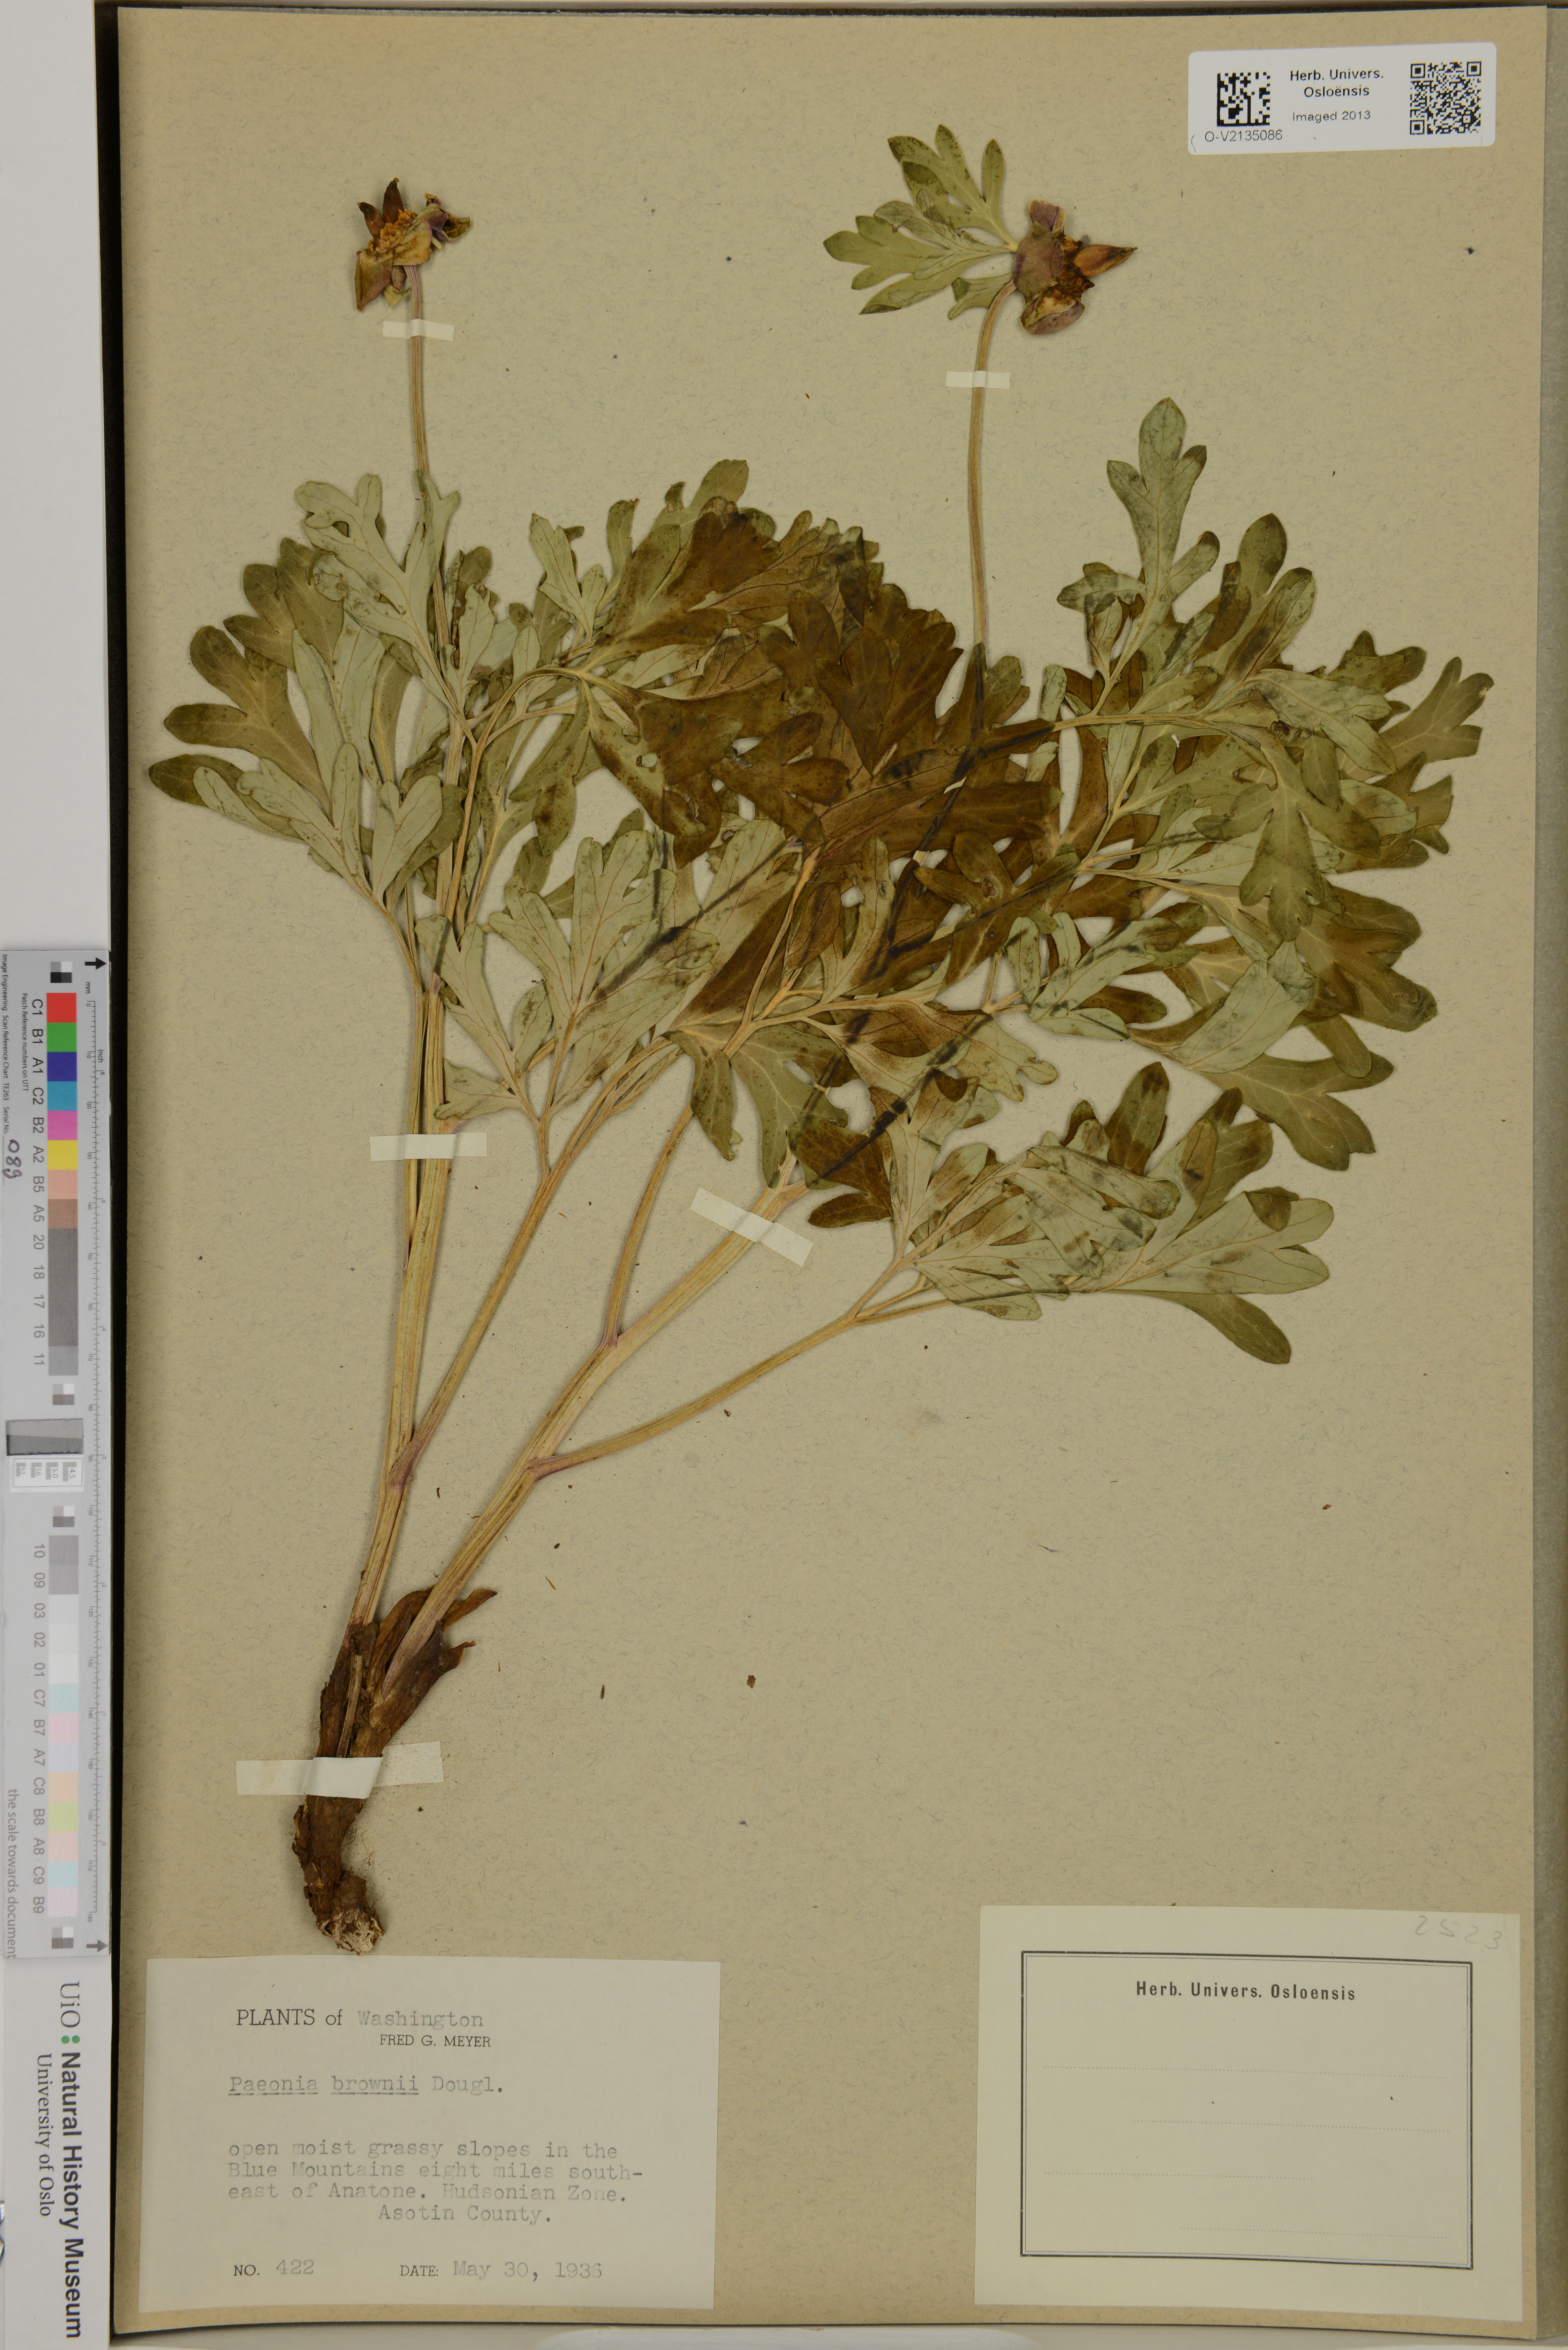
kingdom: Plantae
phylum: Tracheophyta
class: Magnoliopsida
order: Saxifragales
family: Paeoniaceae
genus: Paeonia
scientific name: Paeonia brownii
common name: Brown's peony
